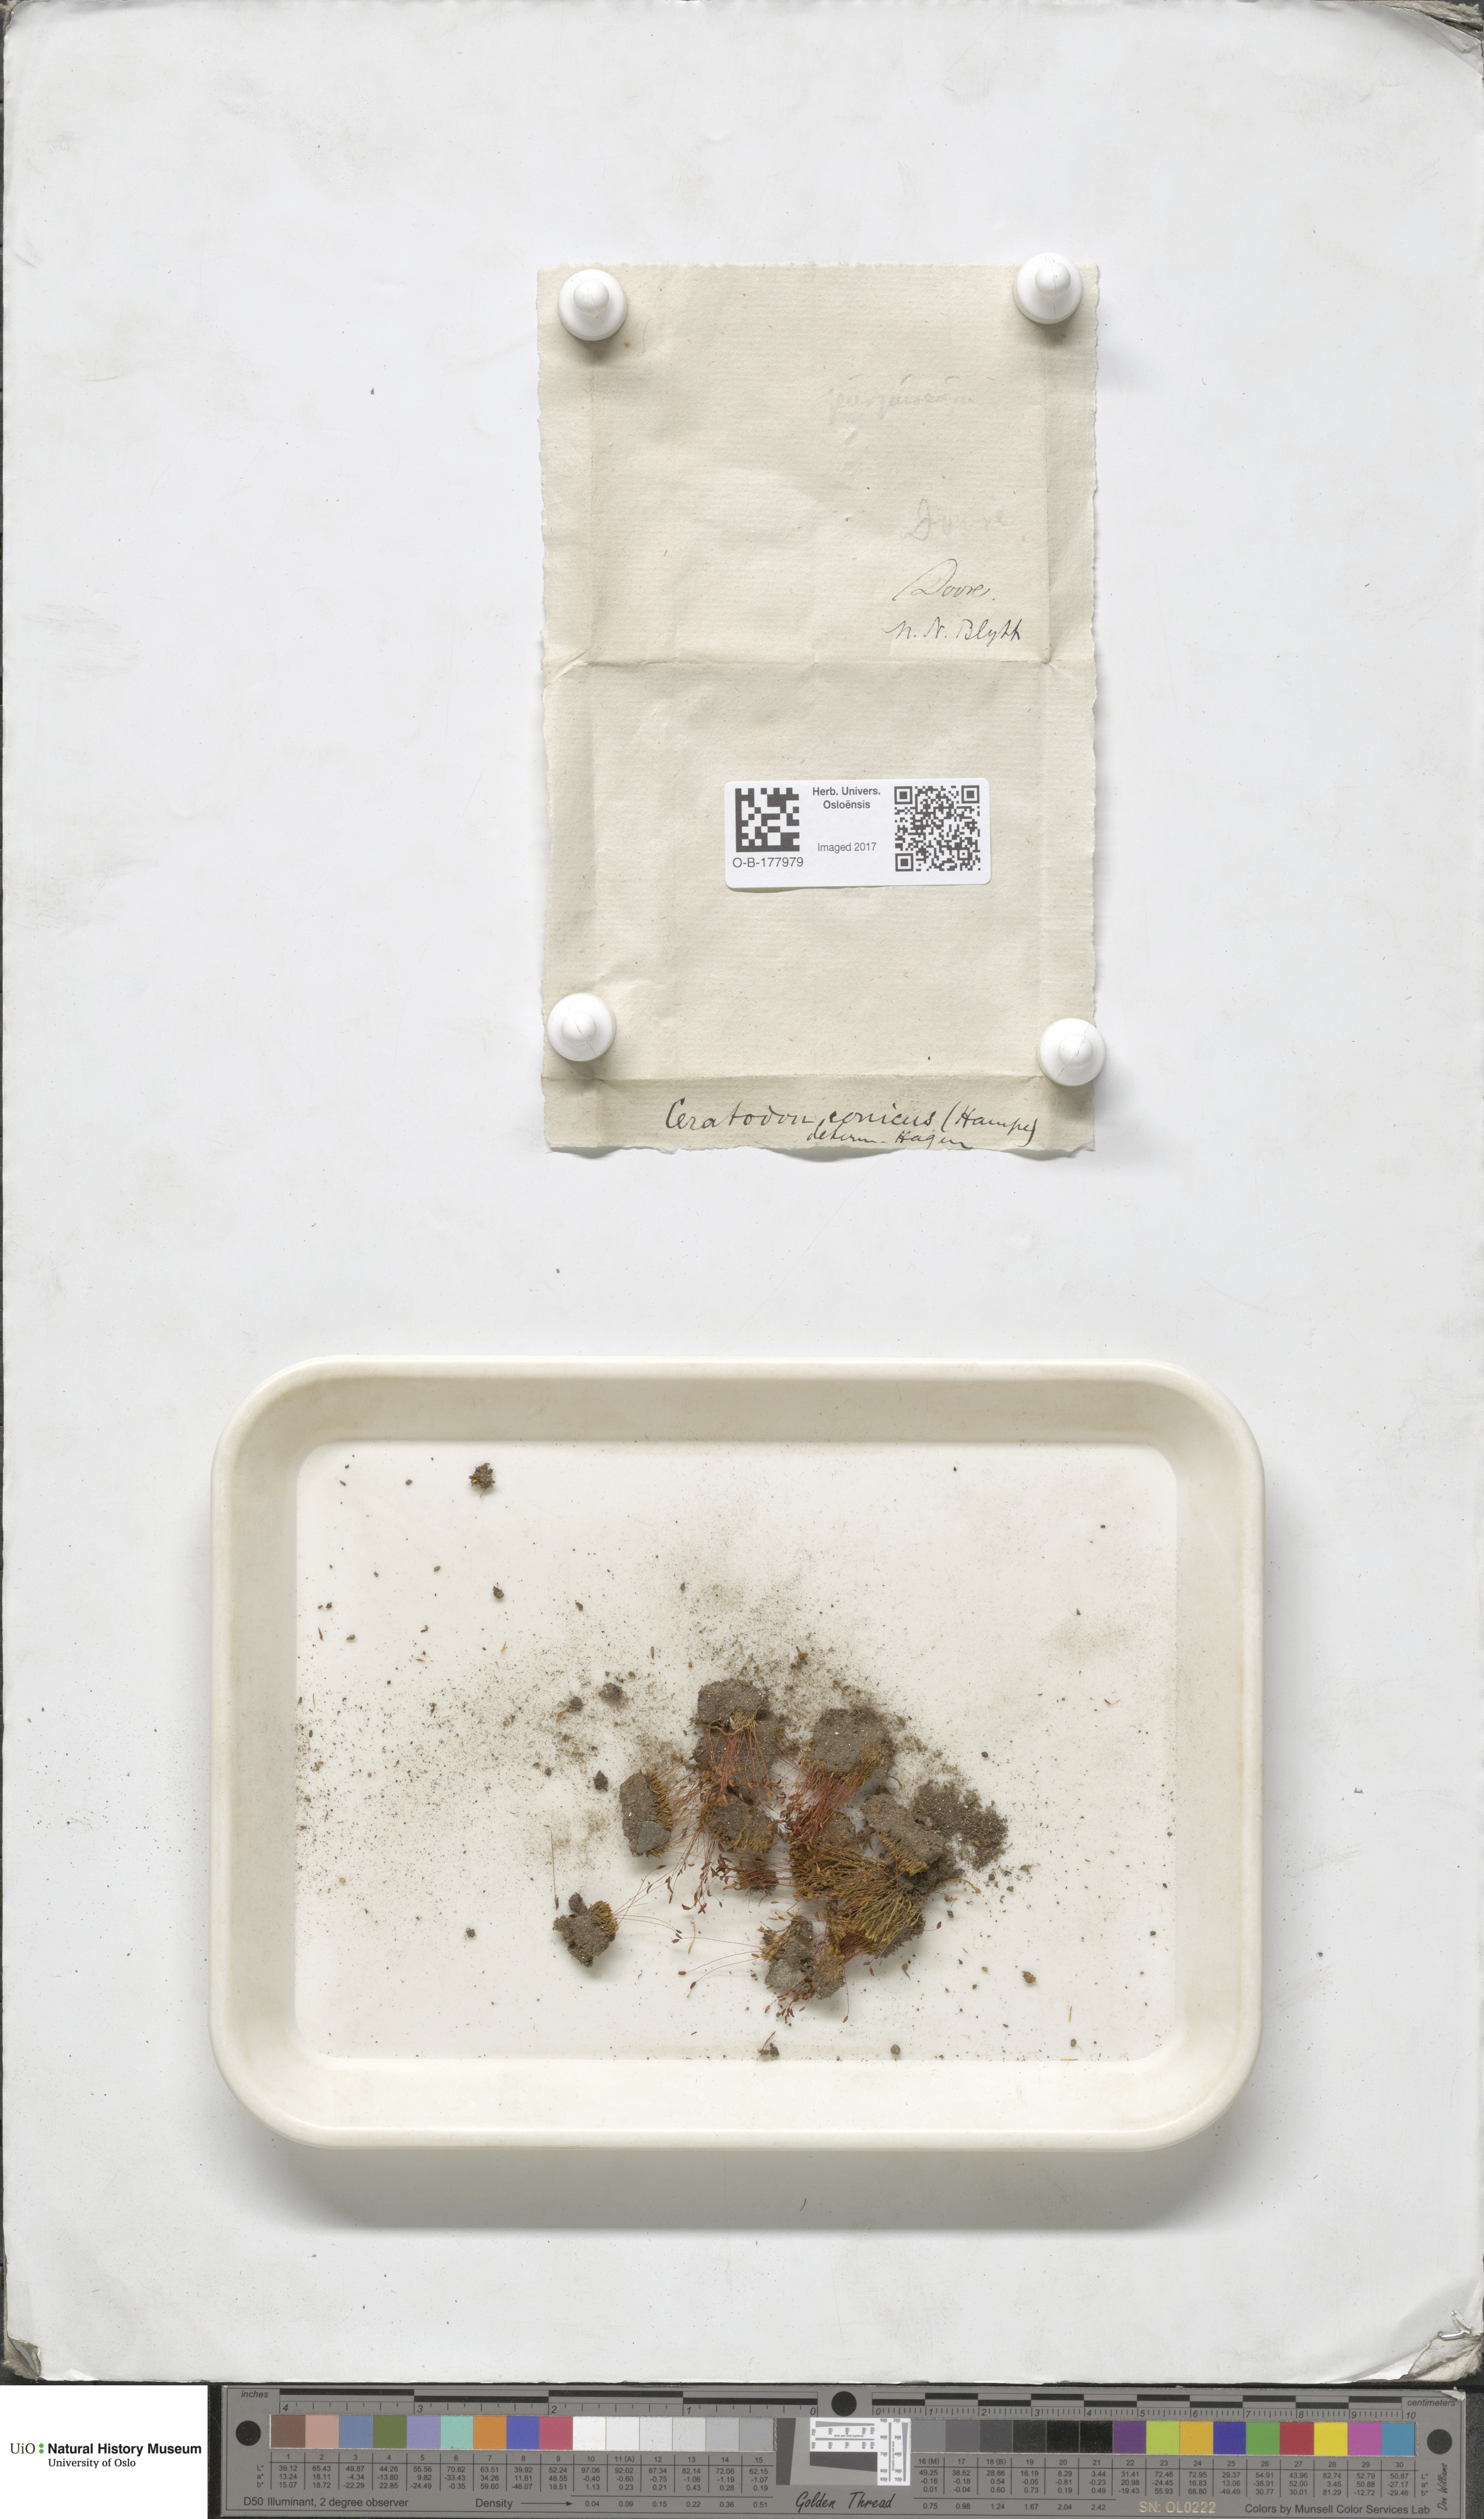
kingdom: Plantae
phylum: Bryophyta
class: Bryopsida
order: Dicranales
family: Ditrichaceae
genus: Ceratodon
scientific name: Ceratodon purpureus
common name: Redshank
